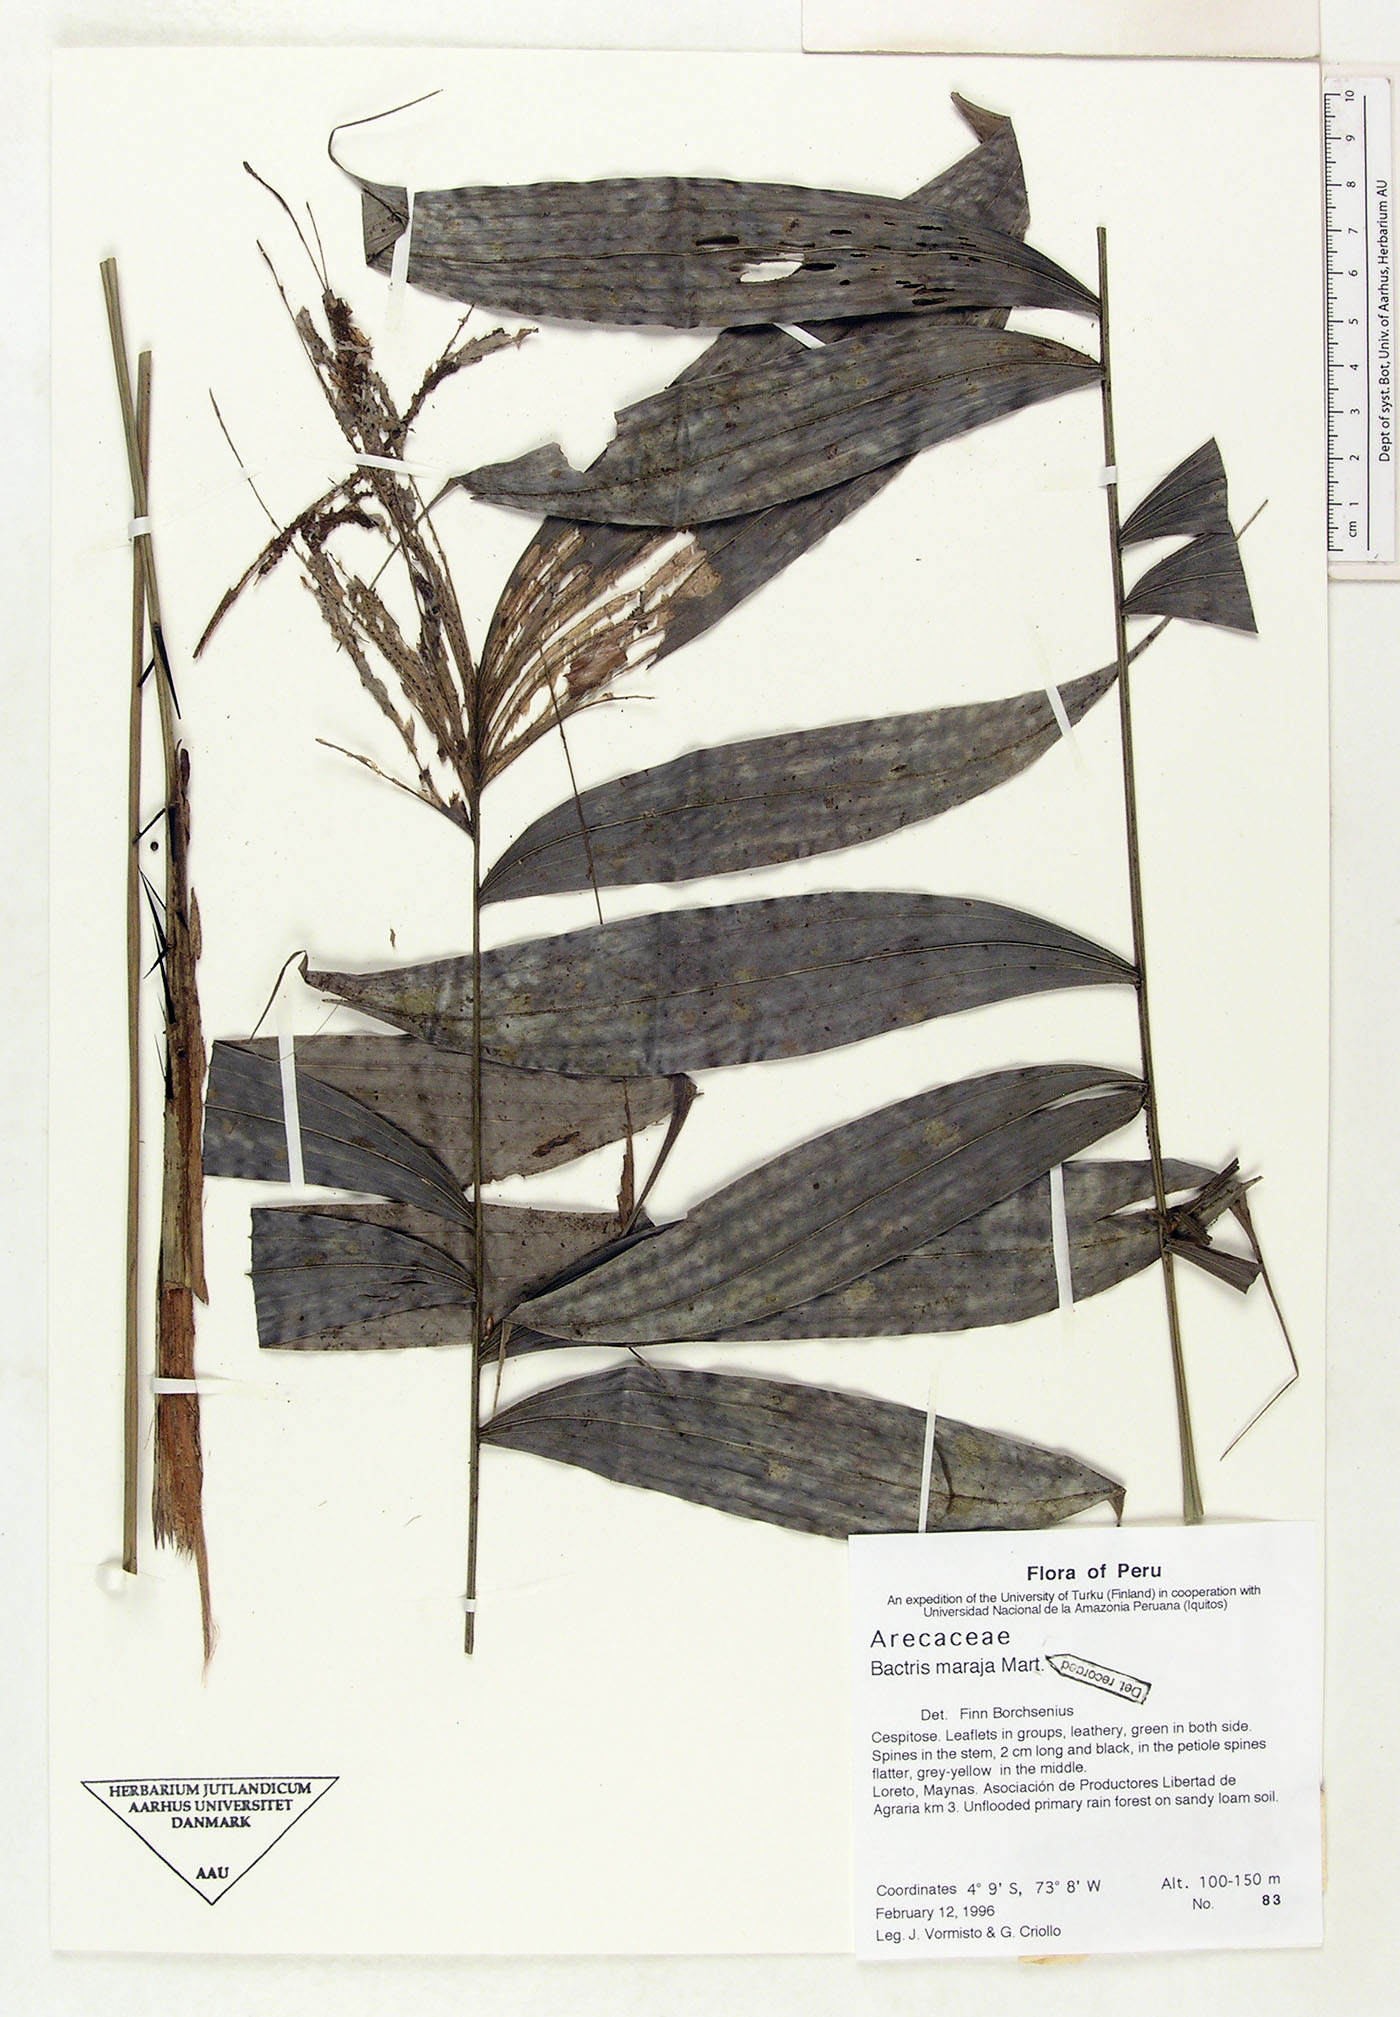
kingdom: Plantae
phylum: Tracheophyta
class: Liliopsida
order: Arecales
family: Arecaceae
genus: Bactris
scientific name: Bactris maraja
